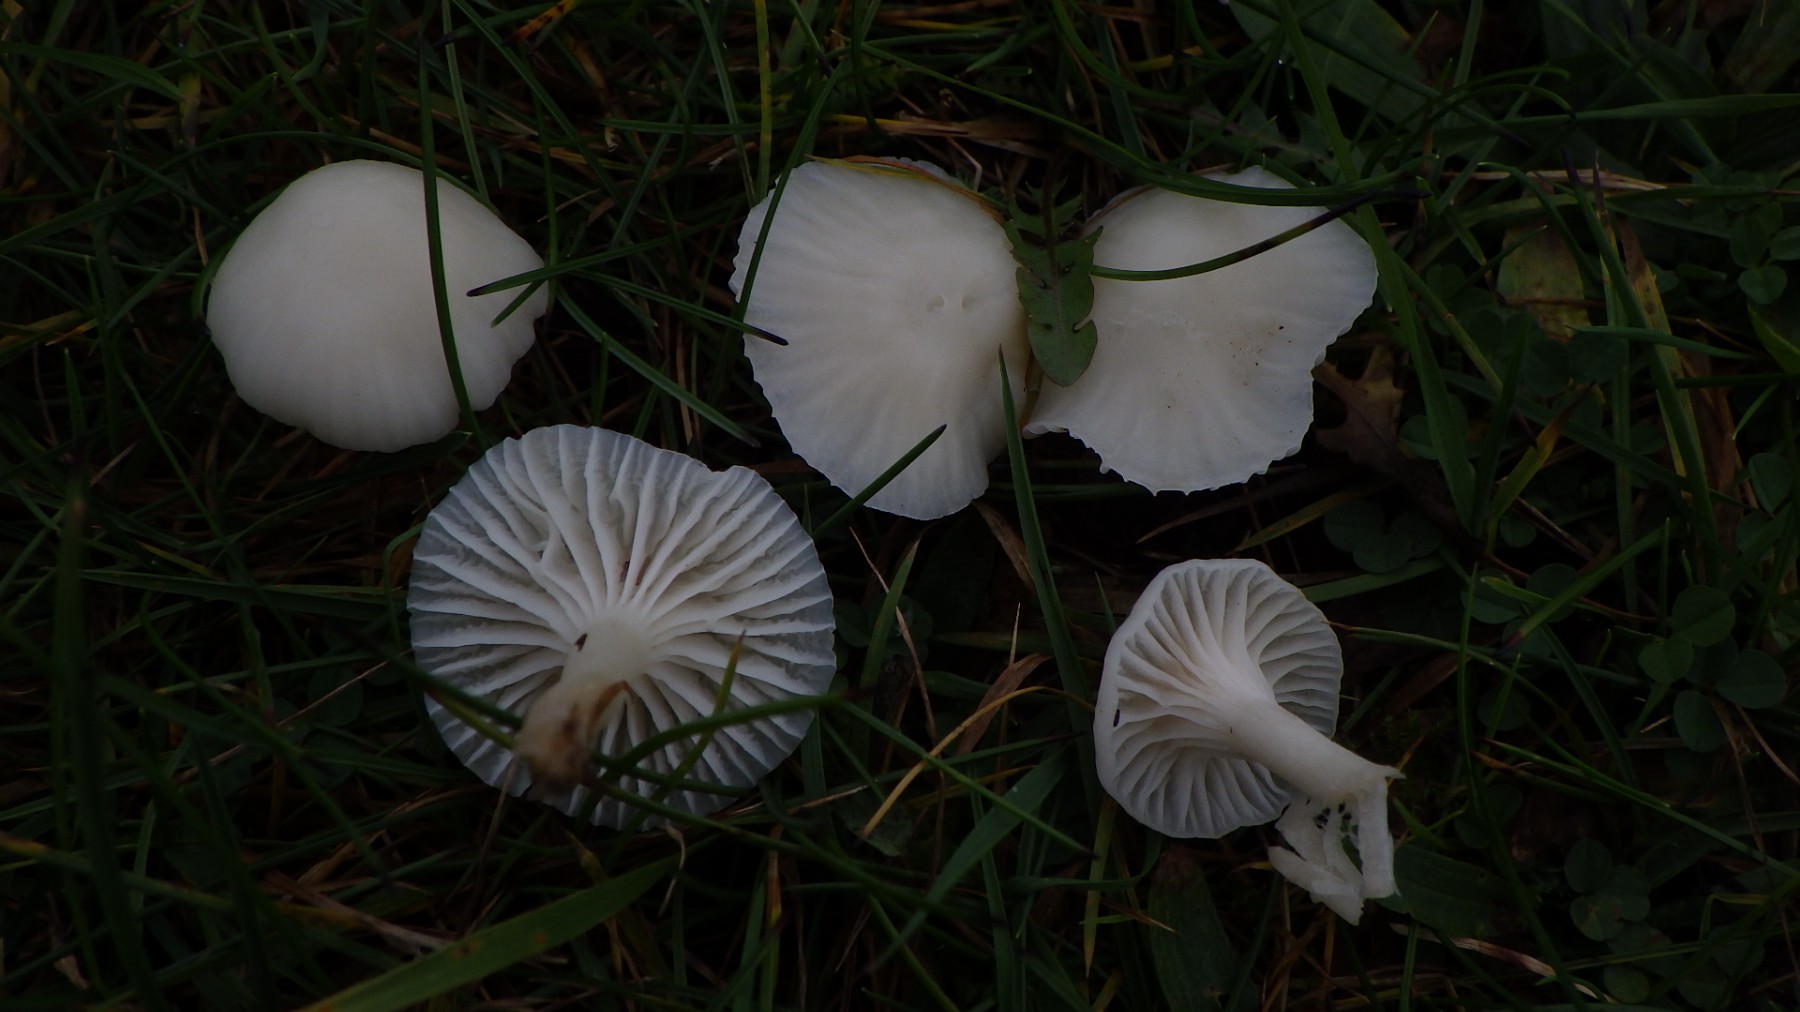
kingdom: Fungi
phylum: Basidiomycota
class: Agaricomycetes
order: Agaricales
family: Hygrophoraceae
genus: Cuphophyllus
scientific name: Cuphophyllus virgineus
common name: snehvid vokshat
